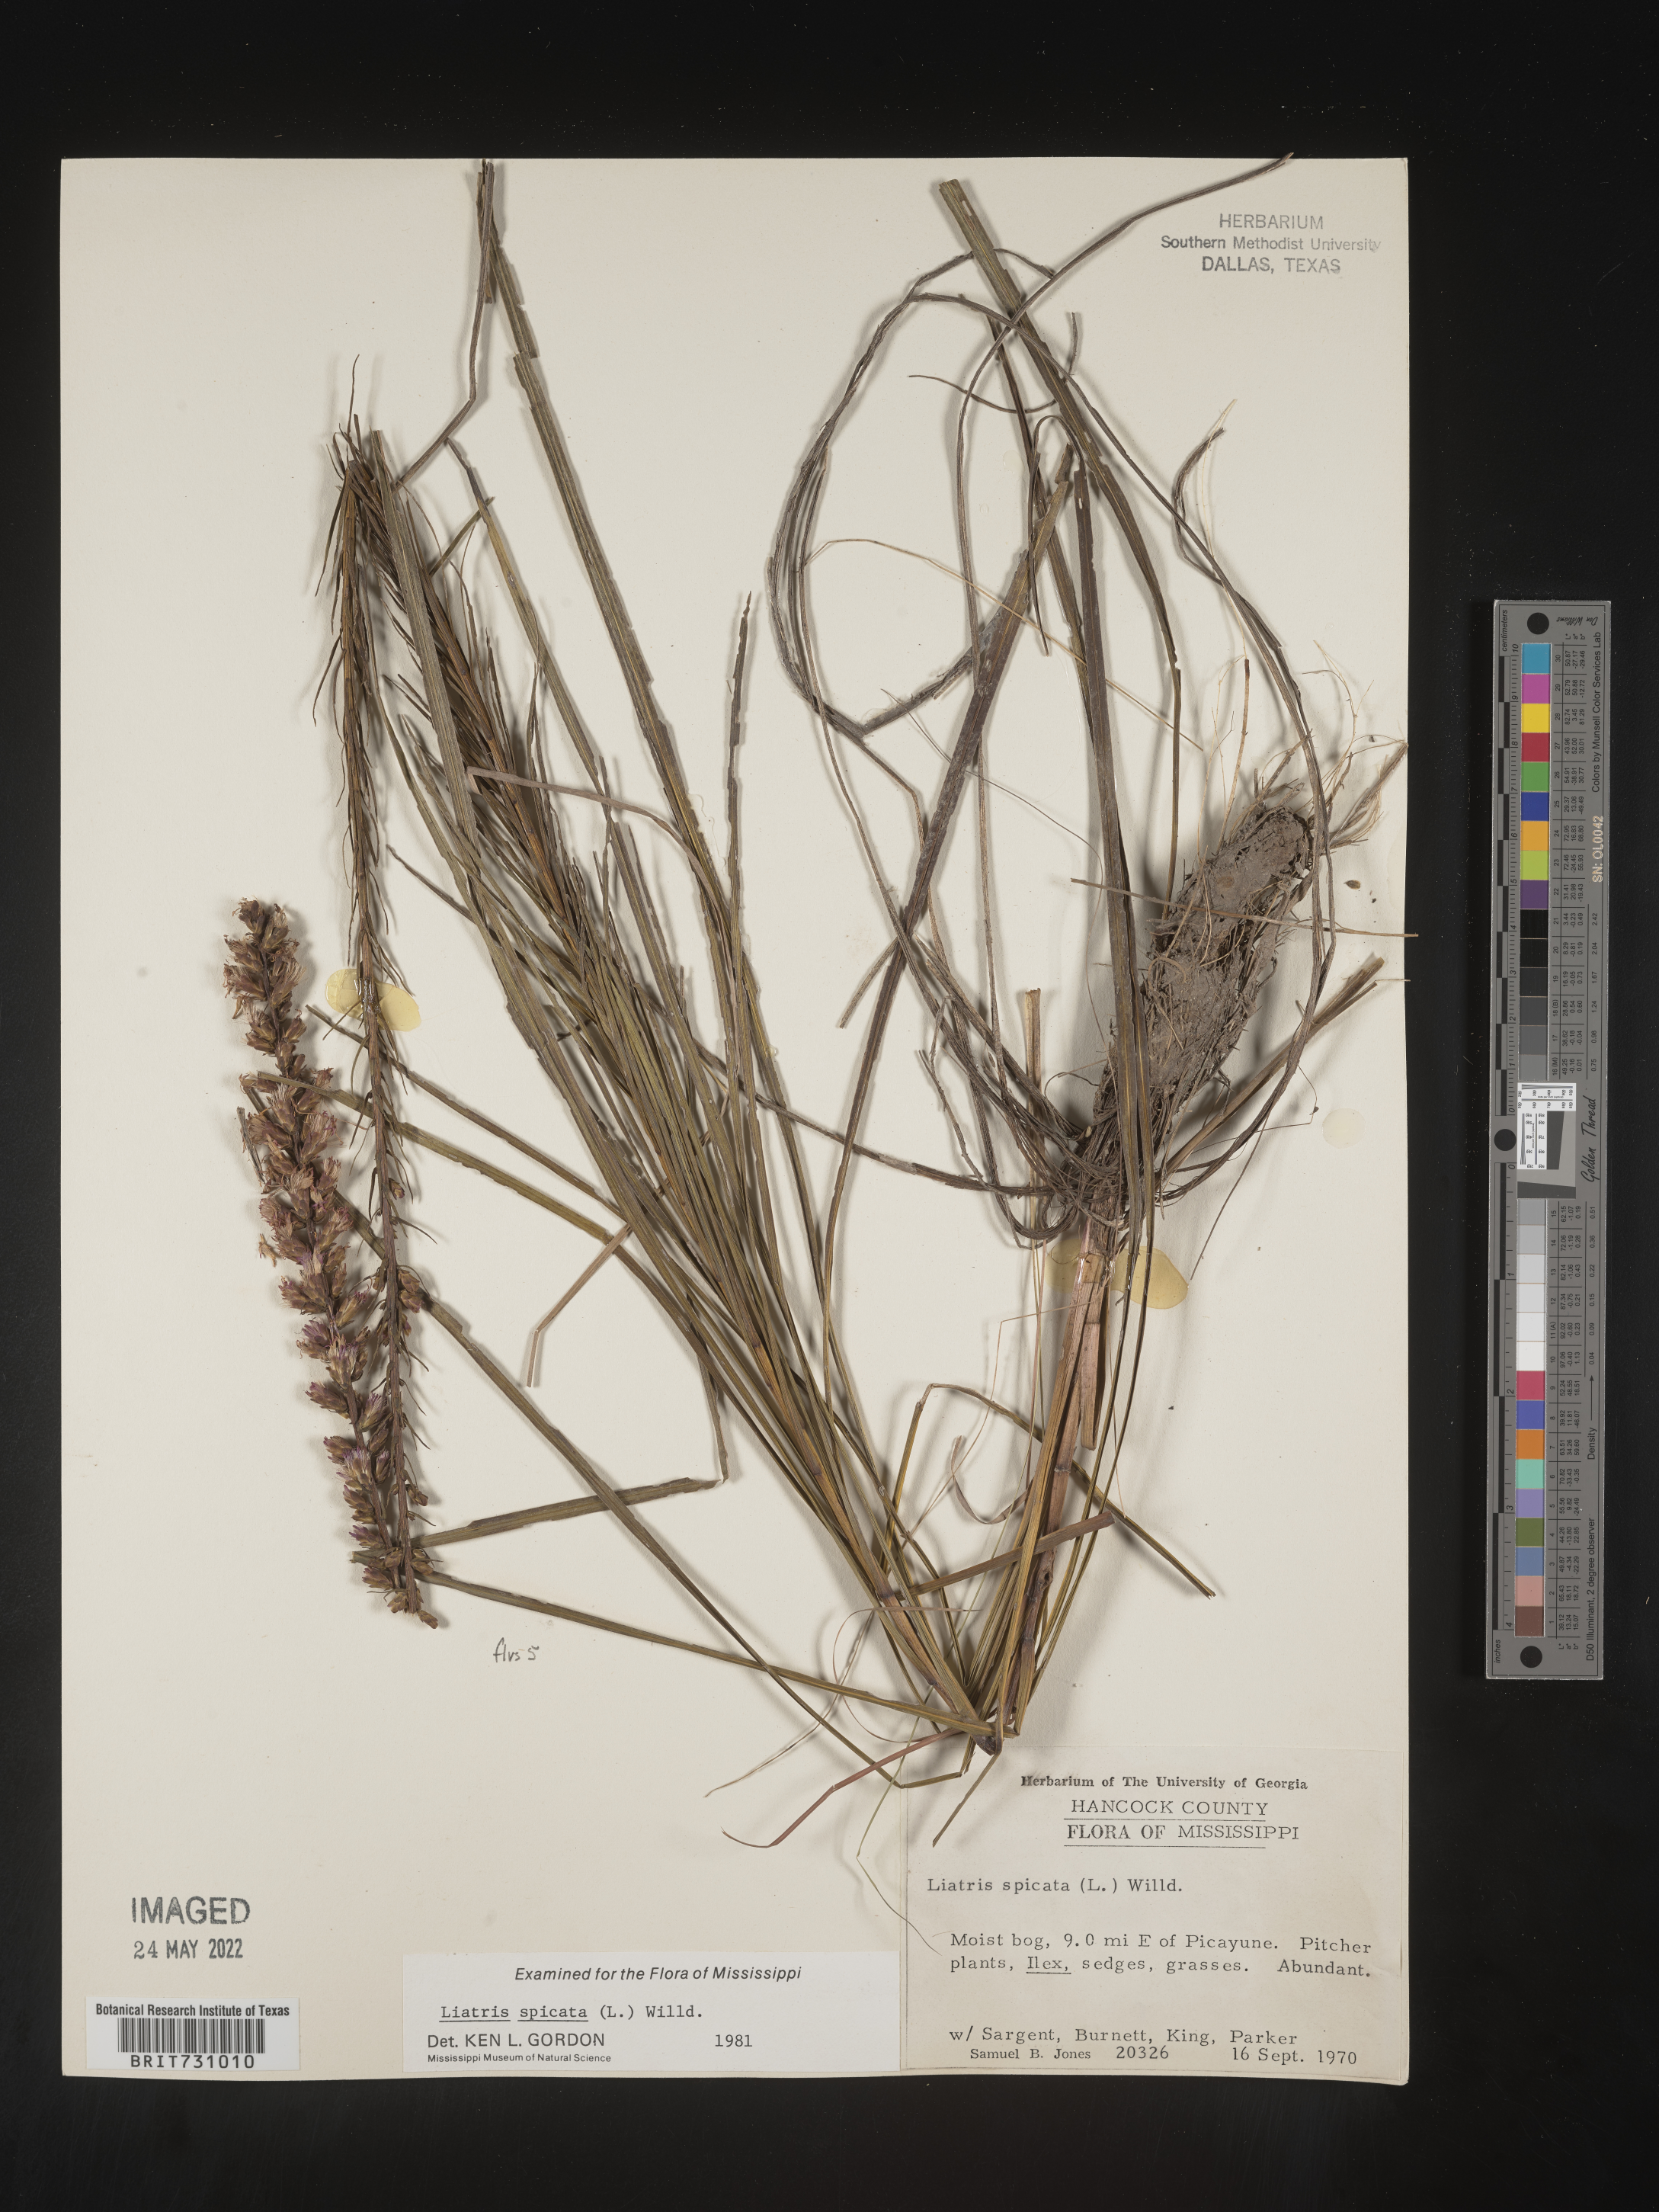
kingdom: Plantae
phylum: Tracheophyta
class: Magnoliopsida
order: Asterales
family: Asteraceae
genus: Liatris
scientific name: Liatris spicata
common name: Florist gayfeather
